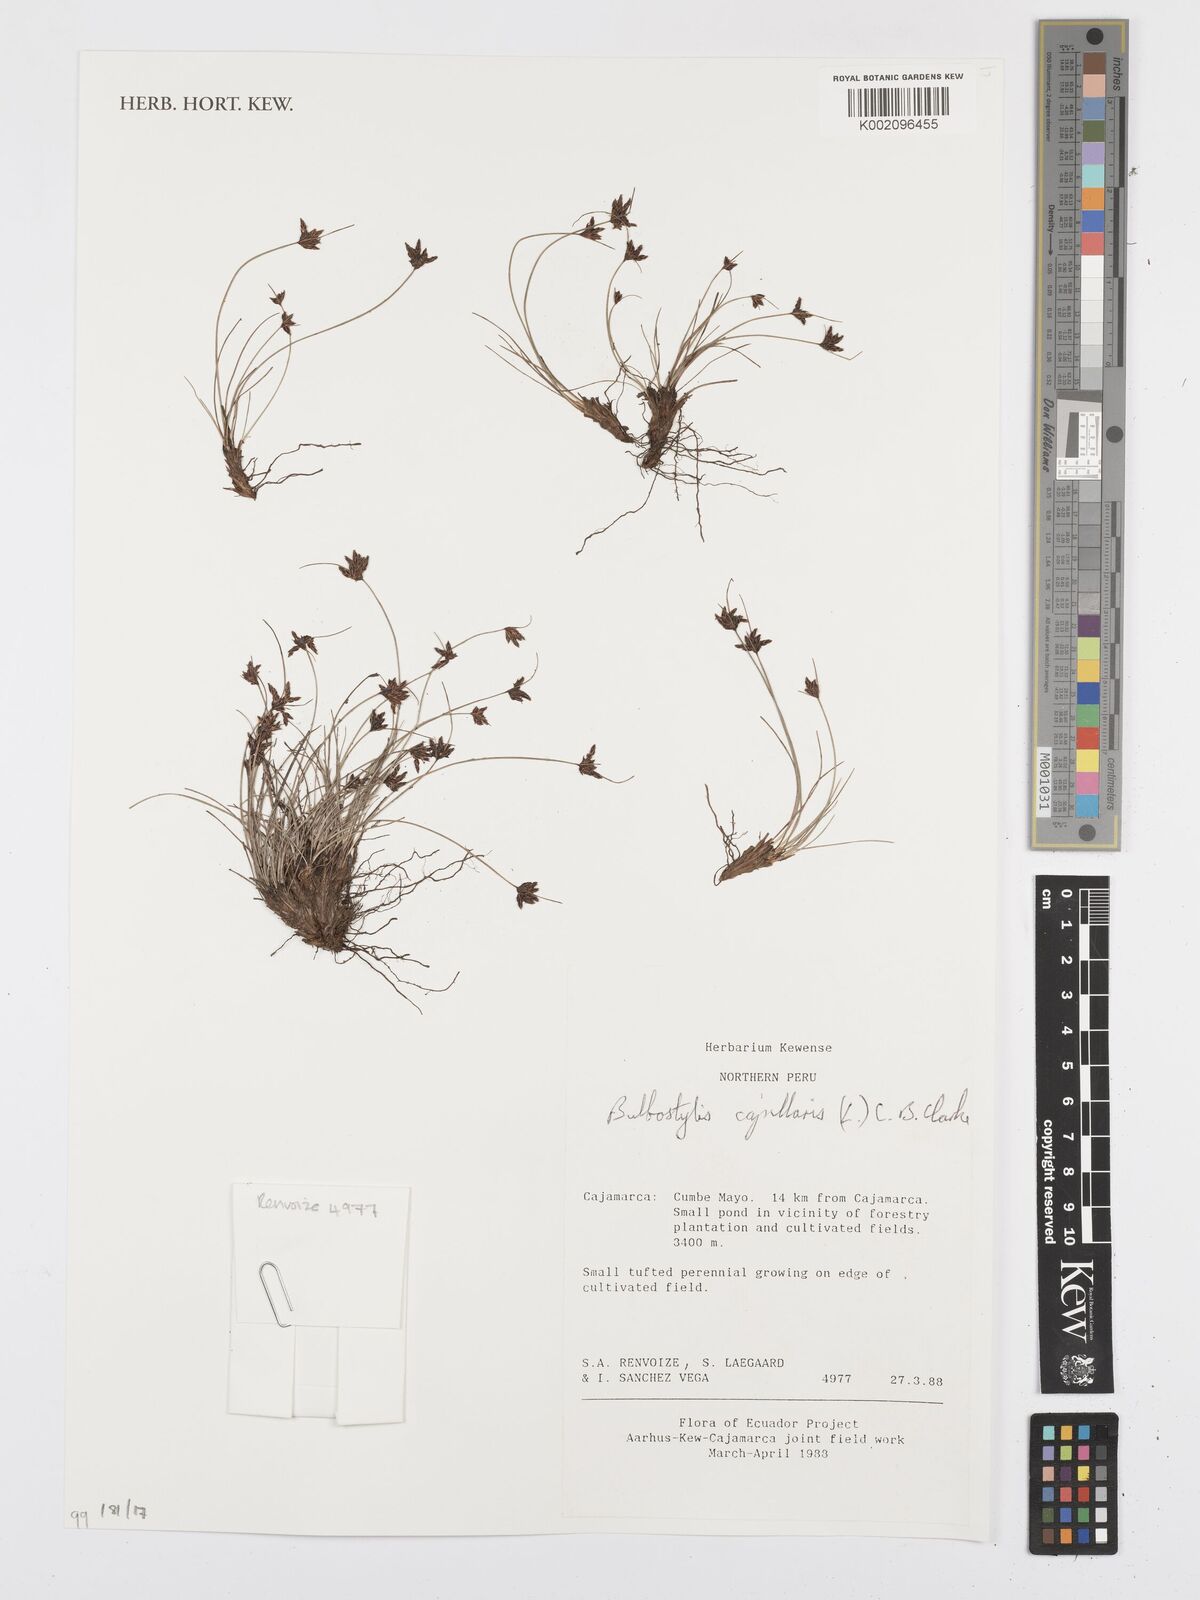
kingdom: Plantae
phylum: Tracheophyta
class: Liliopsida
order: Poales
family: Cyperaceae
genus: Bulbostylis
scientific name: Bulbostylis capillaris
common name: Densetuft hairsedge
